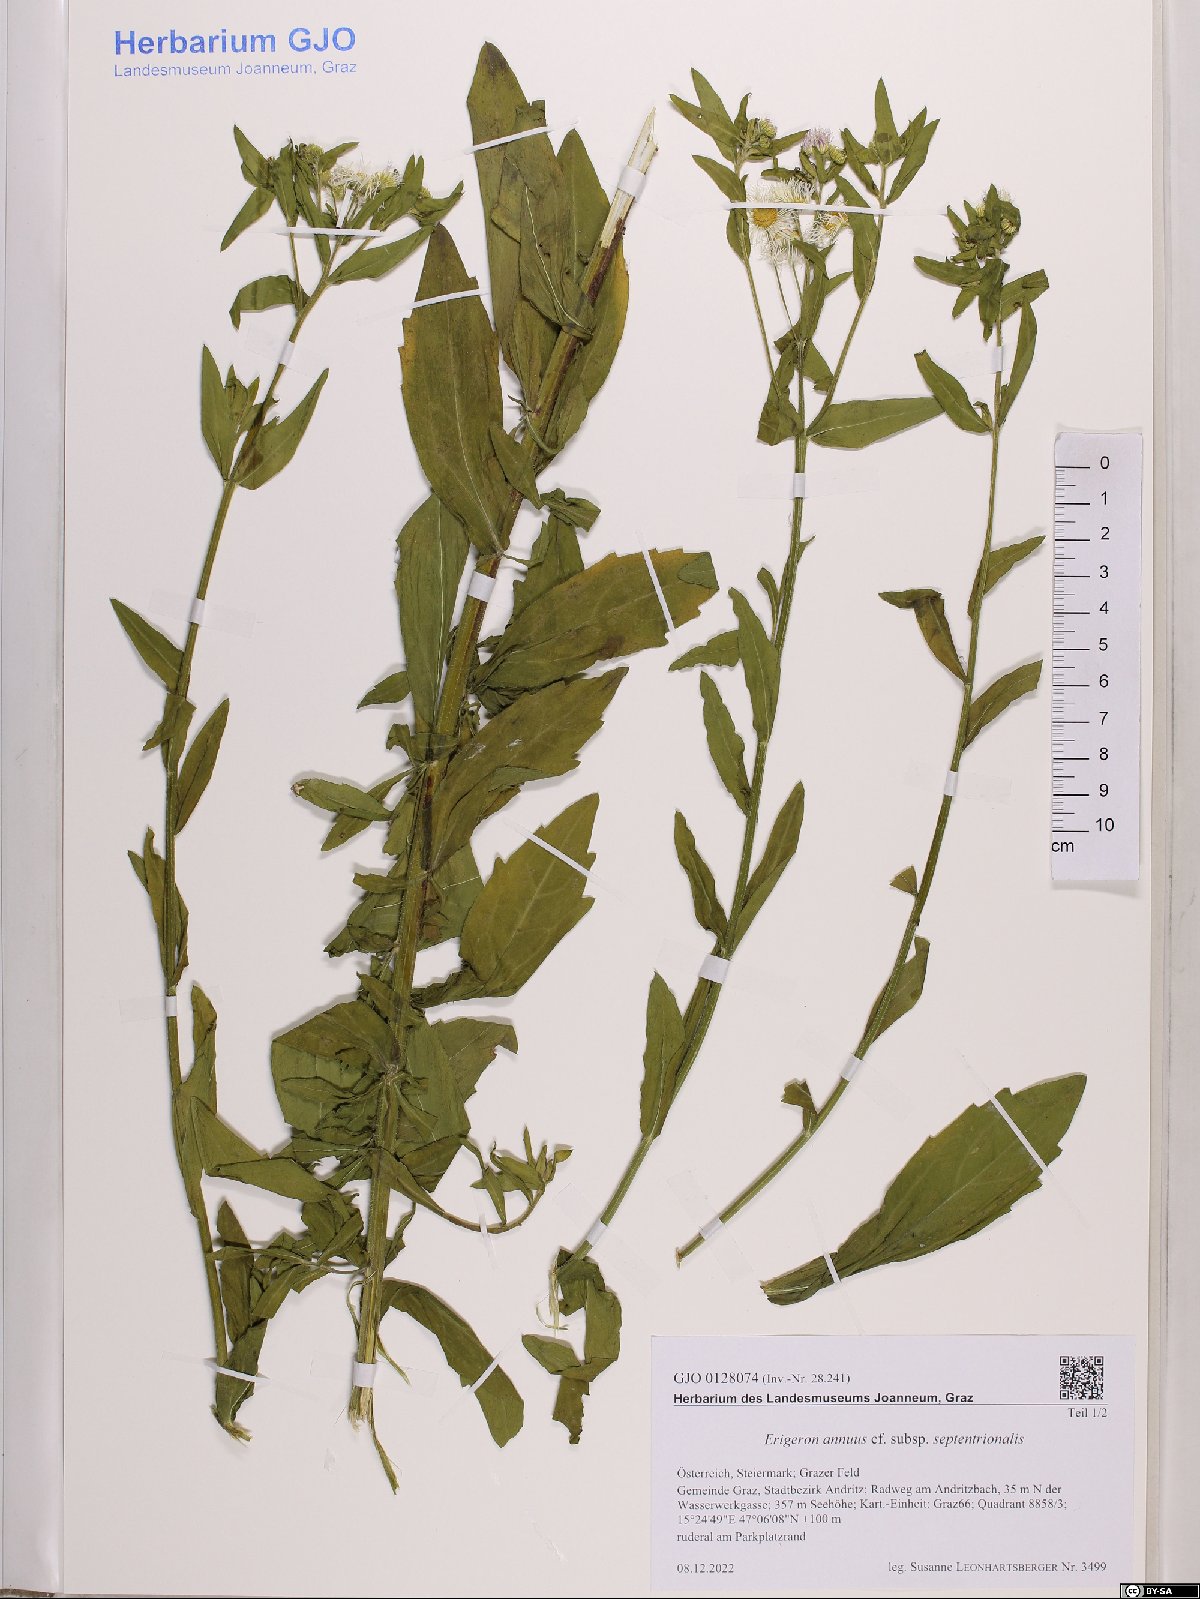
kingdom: Plantae
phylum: Tracheophyta
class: Magnoliopsida
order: Asterales
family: Asteraceae
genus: Erigeron
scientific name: Erigeron annuus
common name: Tall fleabane
